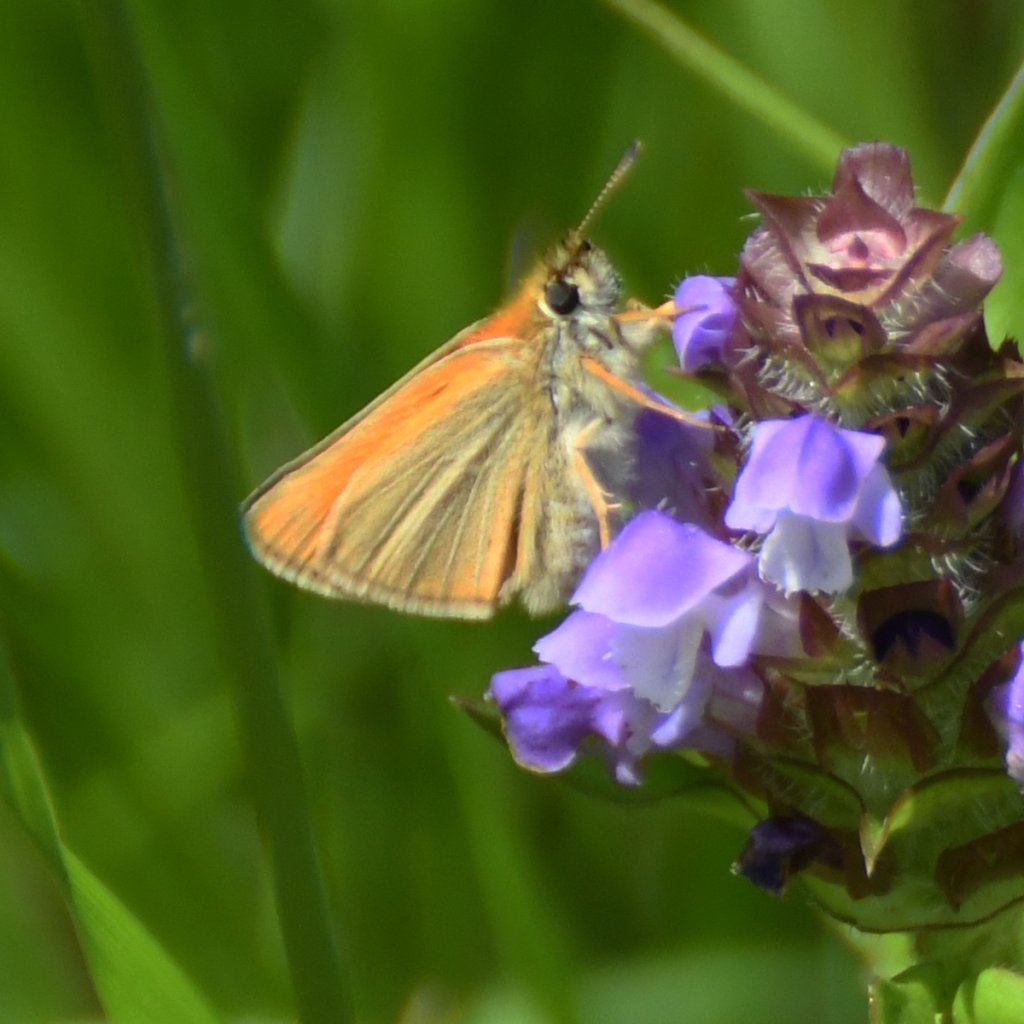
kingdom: Animalia
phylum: Arthropoda
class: Insecta
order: Lepidoptera
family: Hesperiidae
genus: Thymelicus
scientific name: Thymelicus lineola
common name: European Skipper
